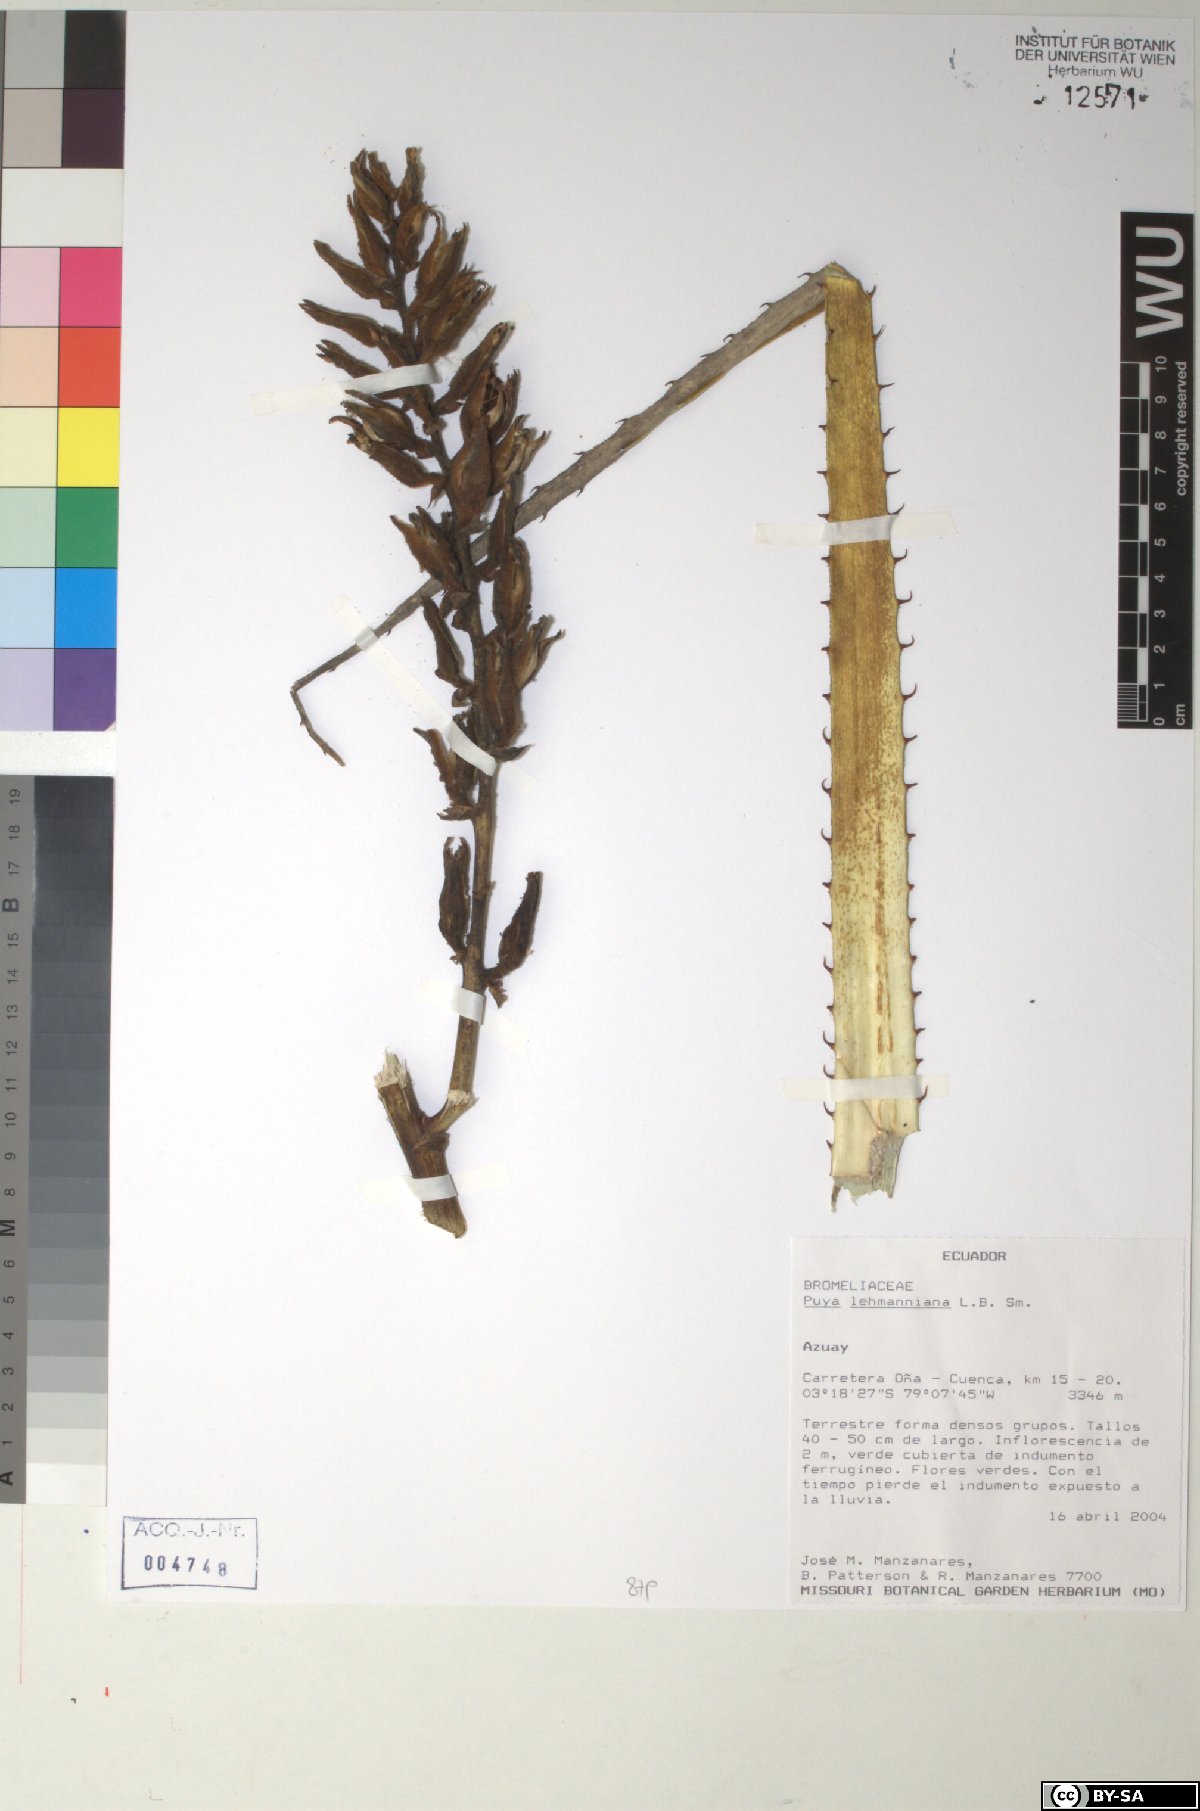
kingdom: Plantae
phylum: Tracheophyta
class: Liliopsida
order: Poales
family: Bromeliaceae
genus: Puya
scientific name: Puya lehmanniana
